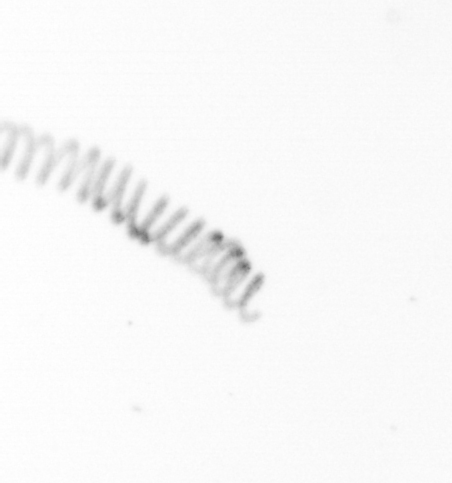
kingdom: Chromista
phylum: Ochrophyta
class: Bacillariophyceae
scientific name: Bacillariophyceae
